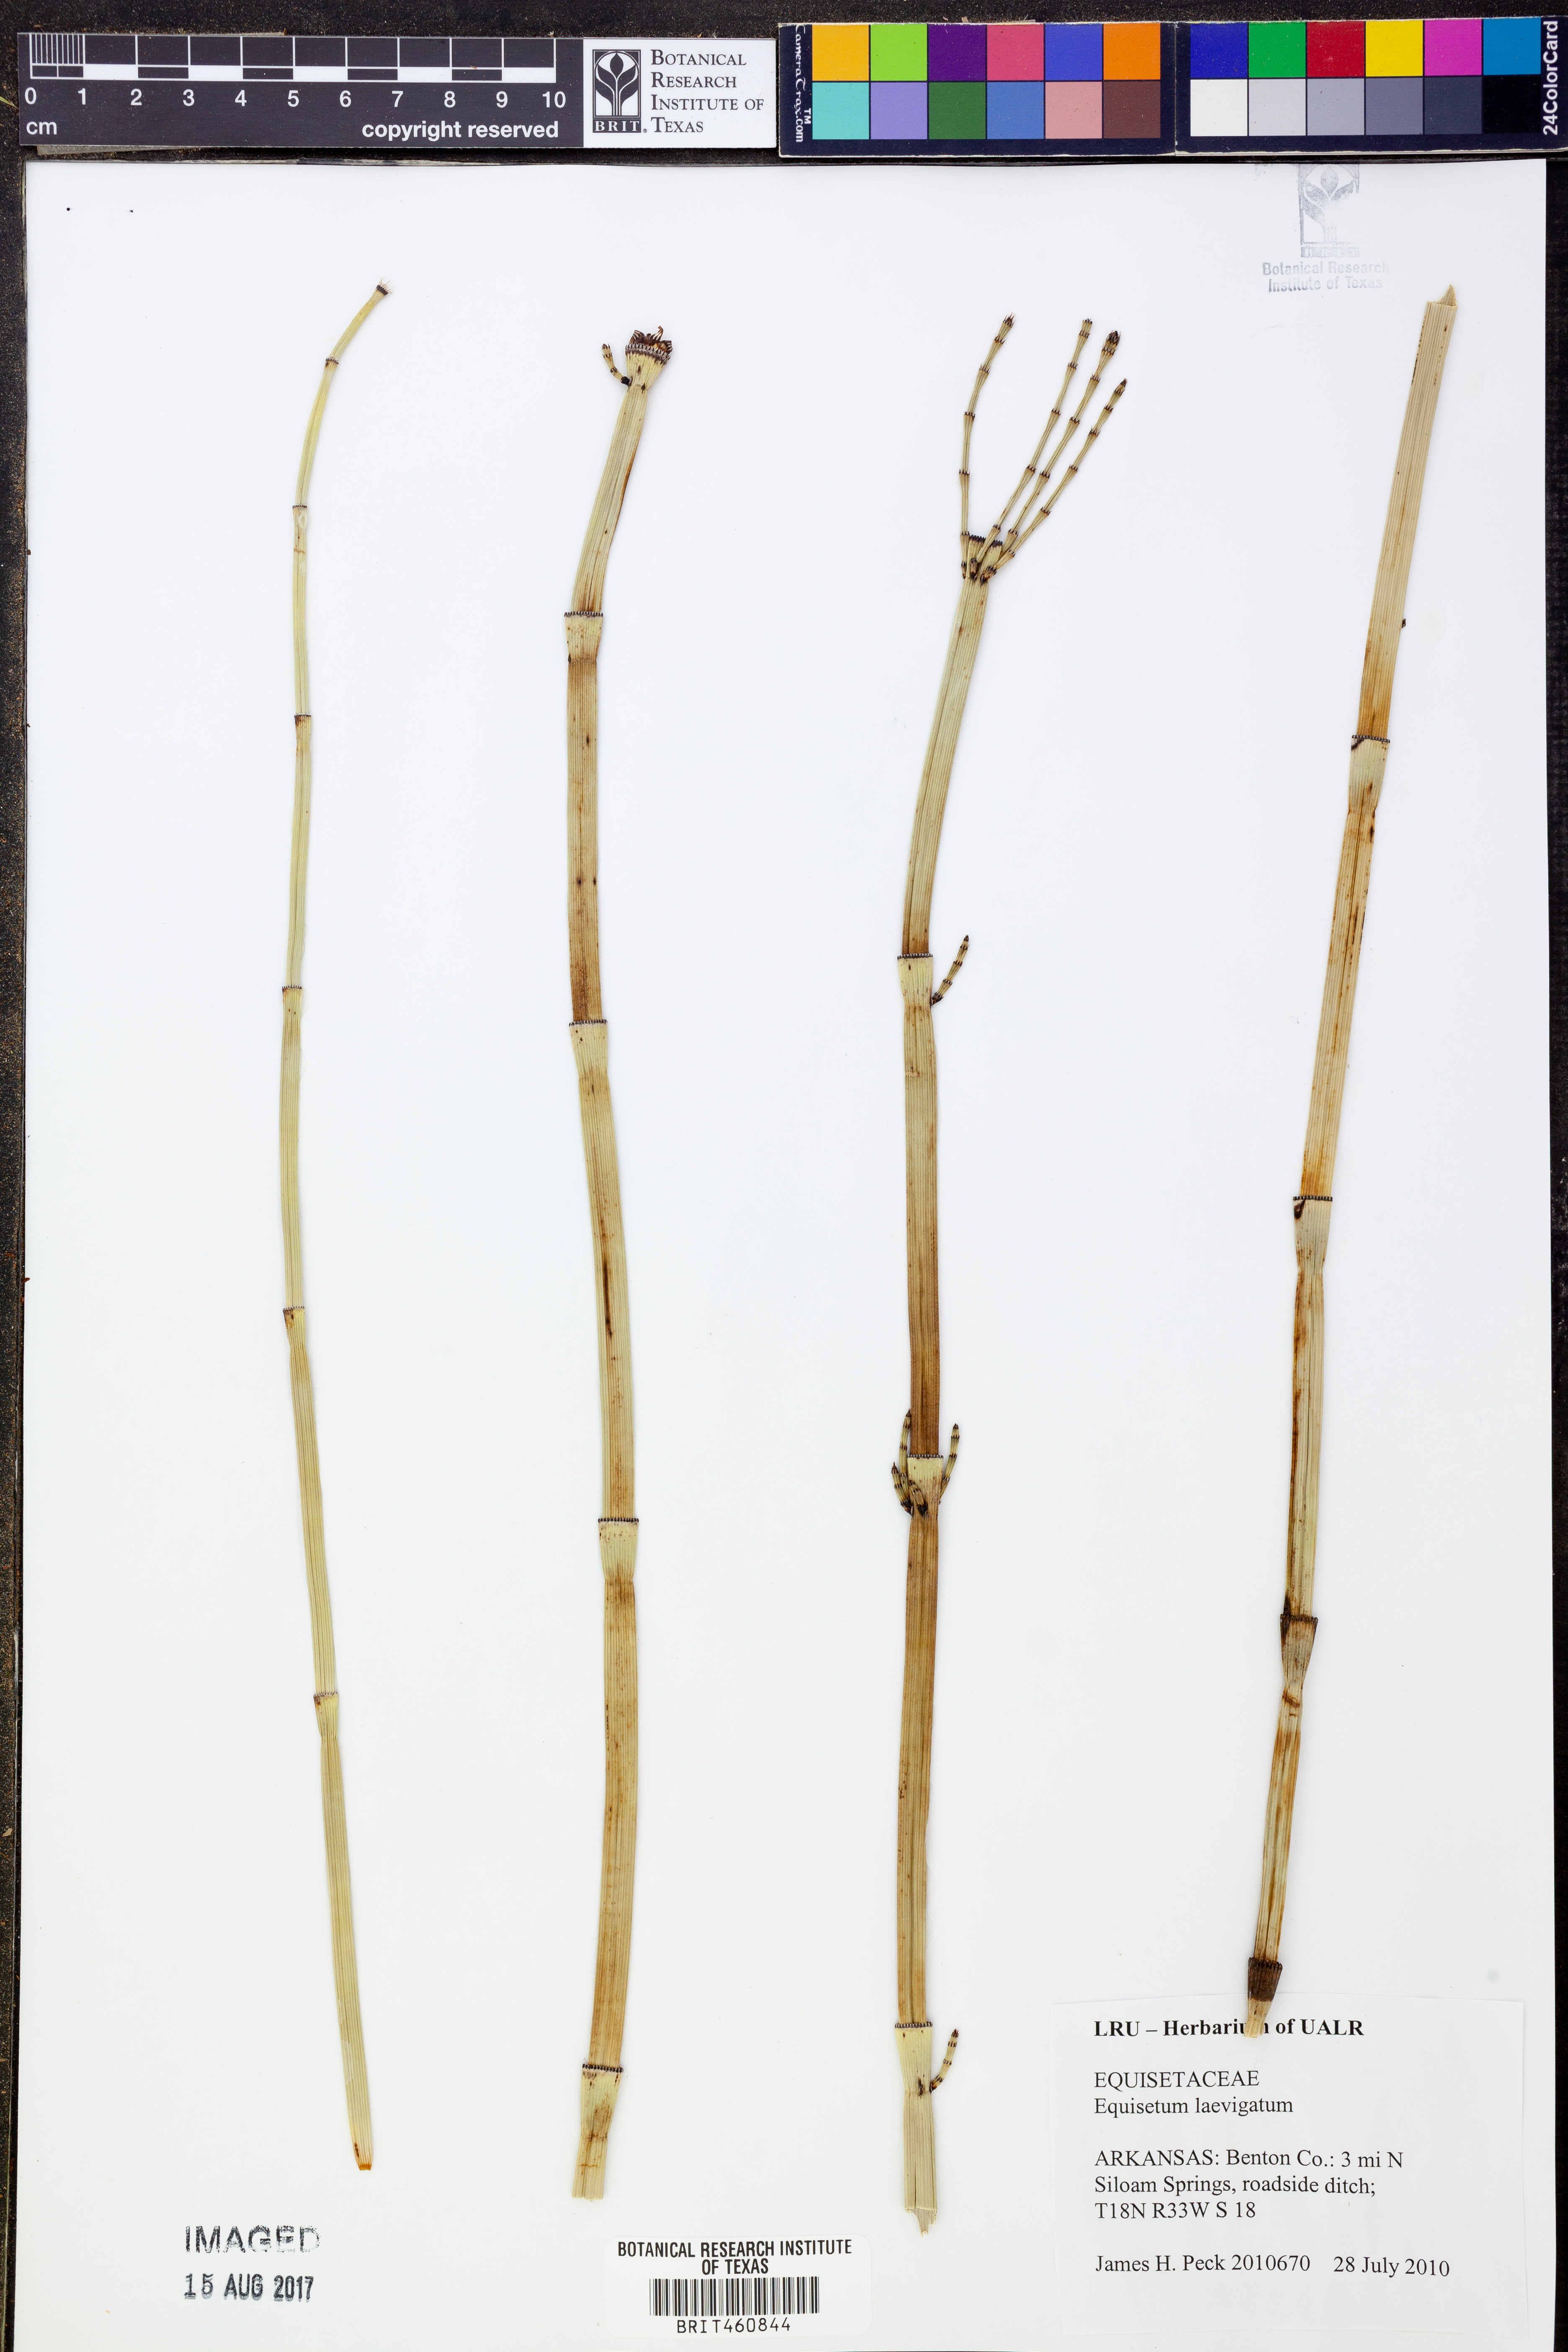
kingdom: Plantae
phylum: Tracheophyta
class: Polypodiopsida
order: Equisetales
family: Equisetaceae
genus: Equisetum
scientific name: Equisetum laevigatum
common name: Smooth scouring-rush
